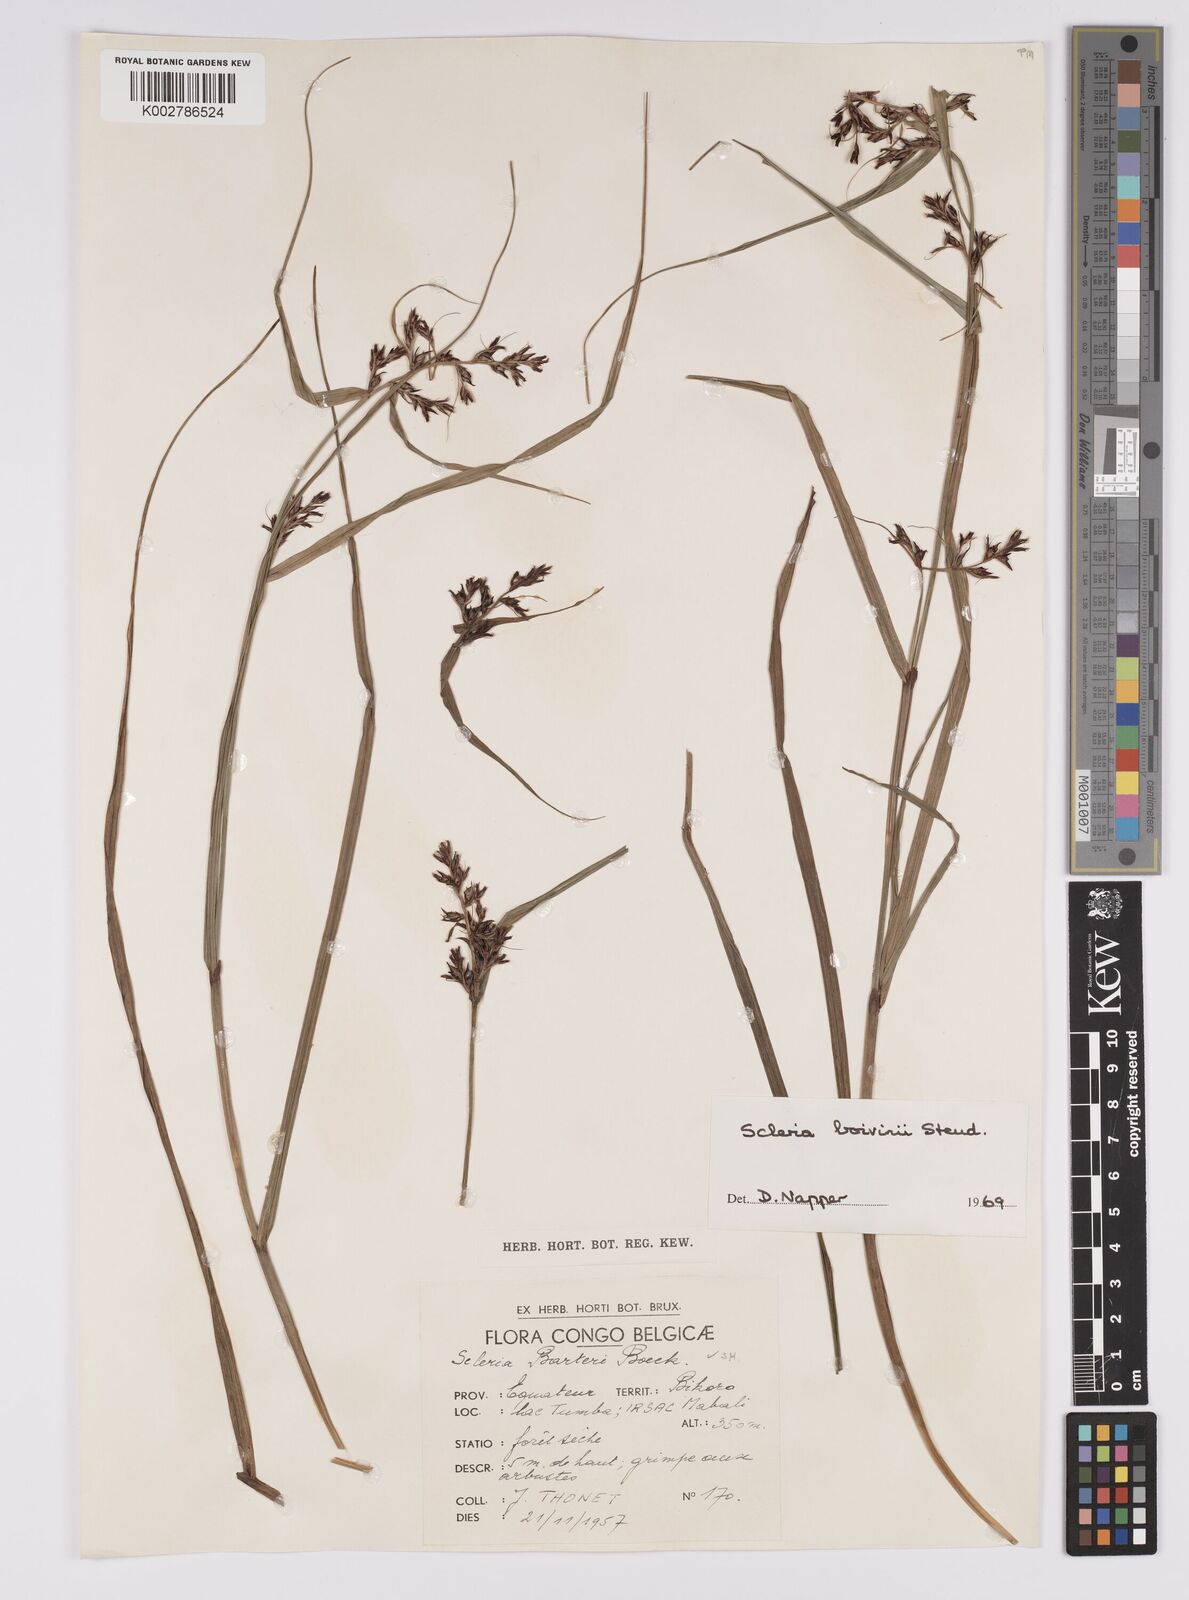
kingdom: Plantae
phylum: Tracheophyta
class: Liliopsida
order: Poales
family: Cyperaceae
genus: Scleria
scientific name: Scleria boivinii
